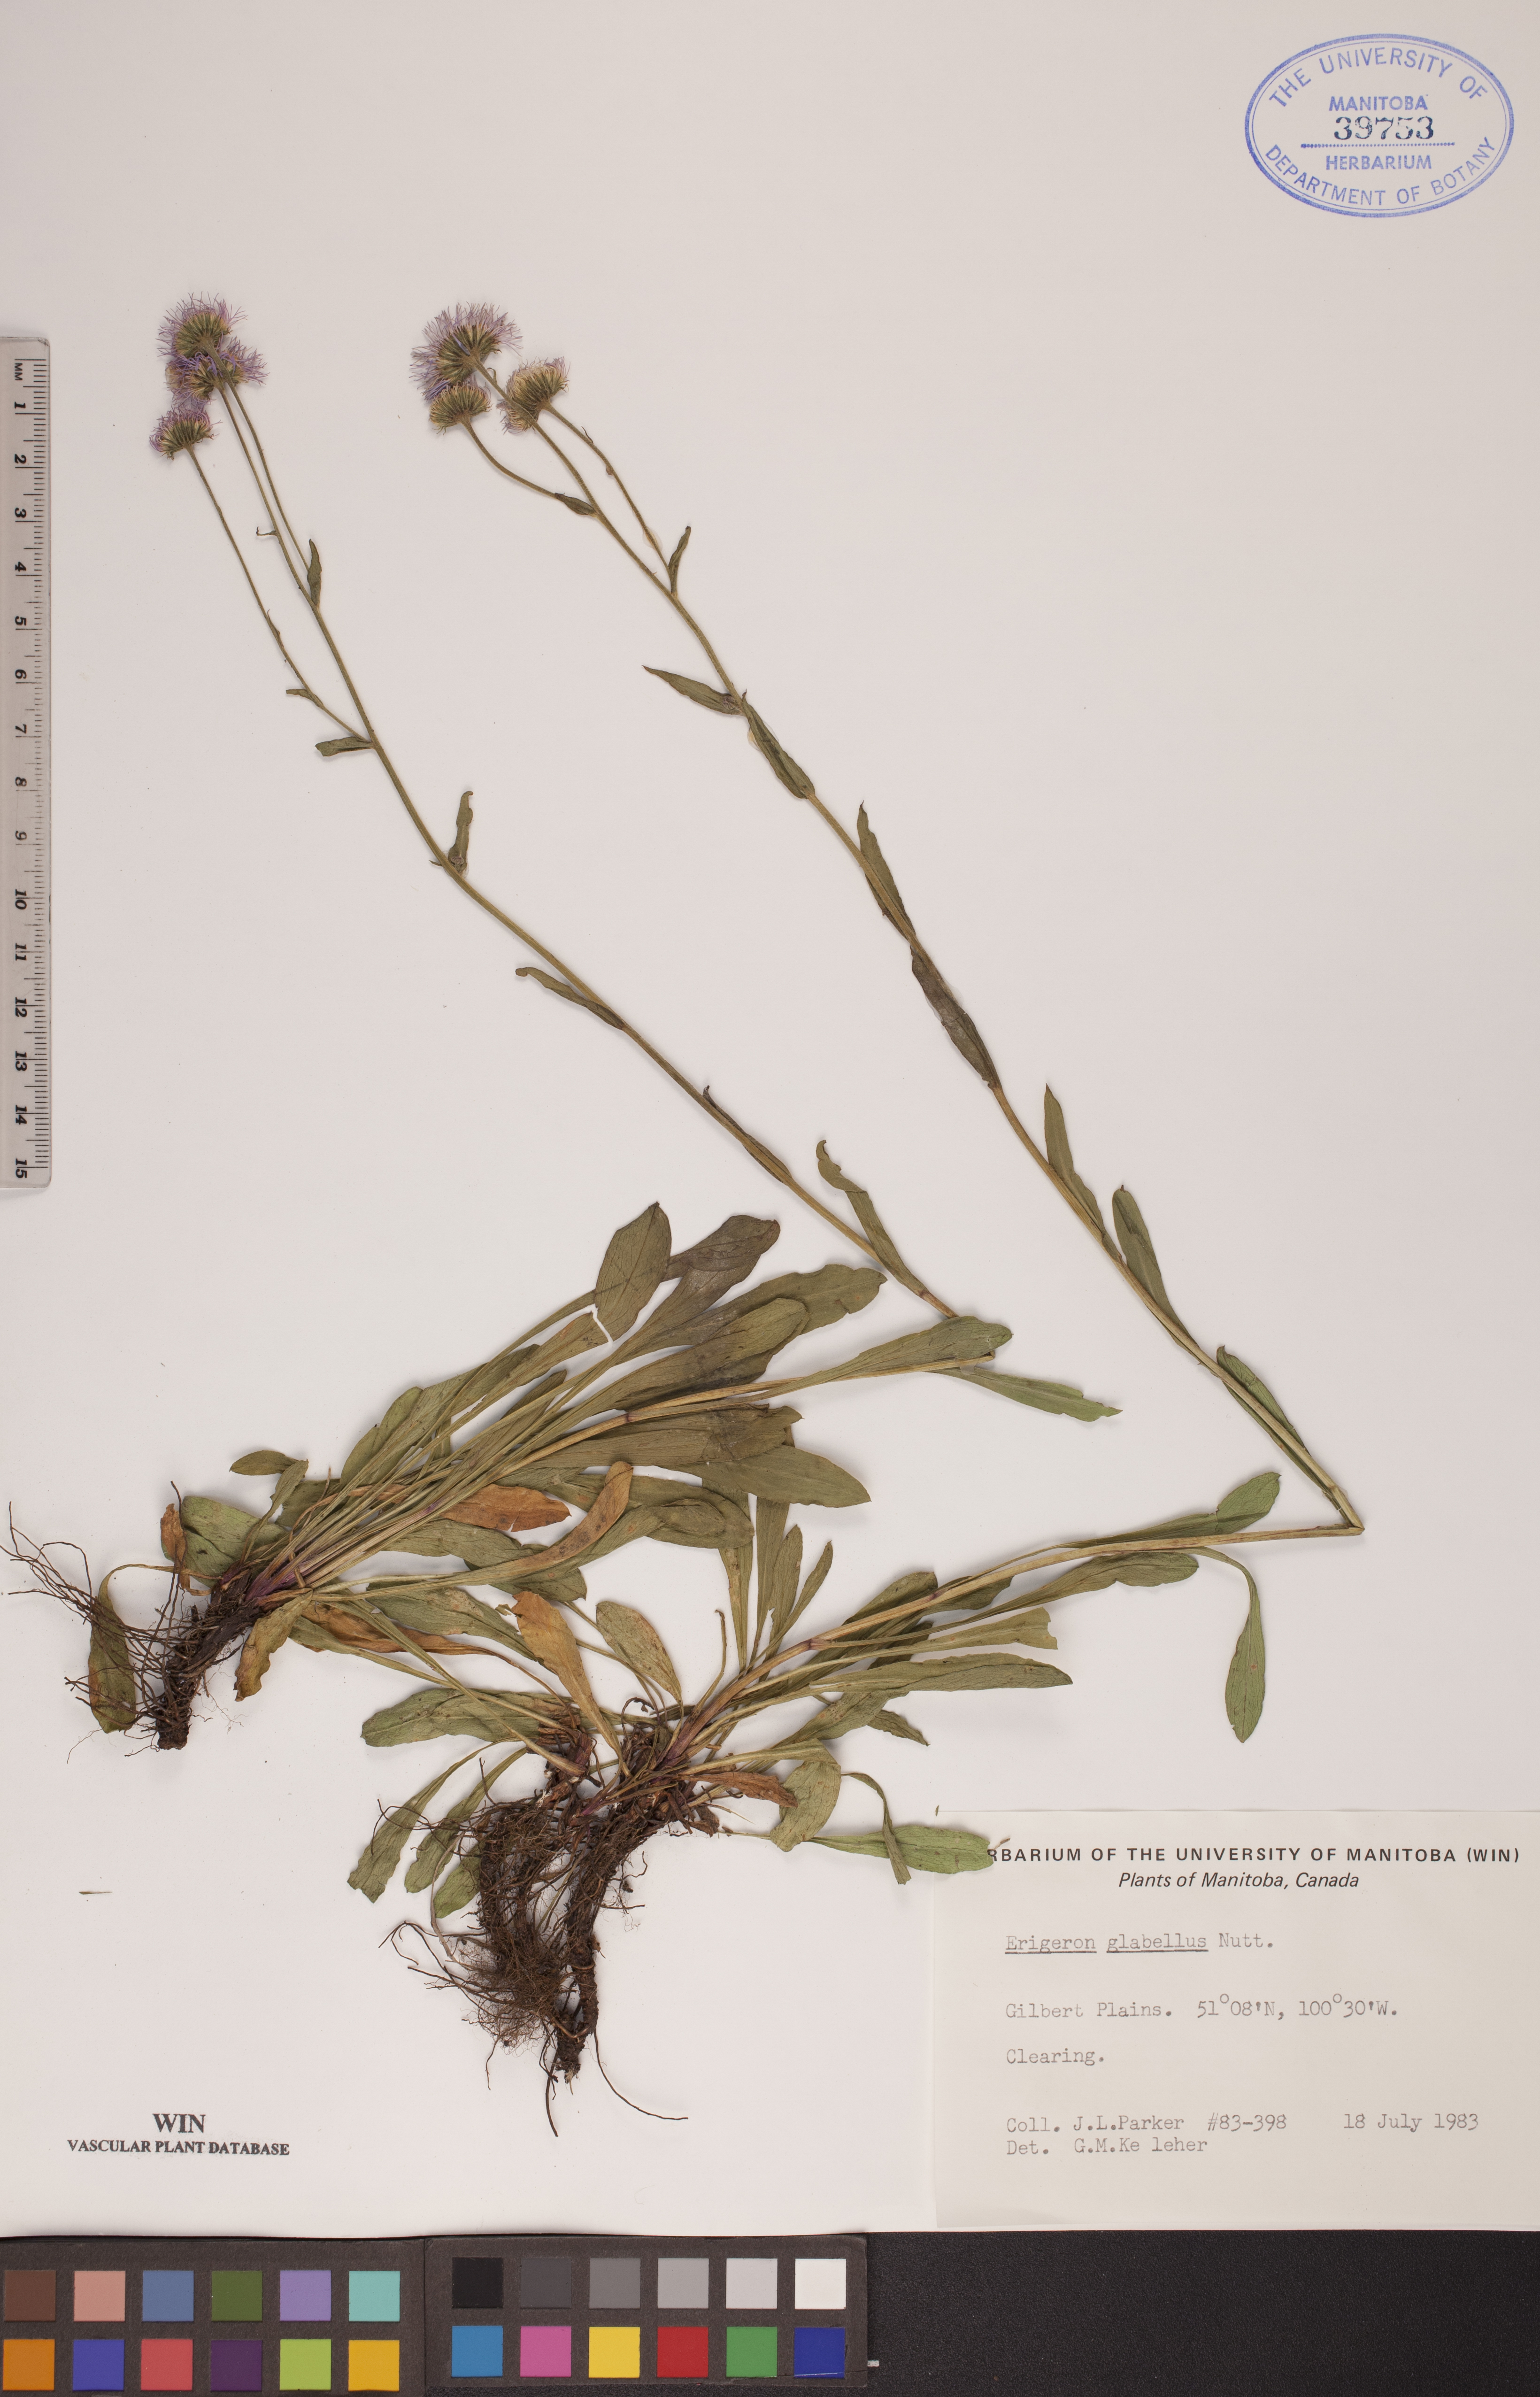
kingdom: Plantae
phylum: Tracheophyta
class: Magnoliopsida
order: Asterales
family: Asteraceae
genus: Erigeron
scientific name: Erigeron glabellus
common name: Smooth fleabane
